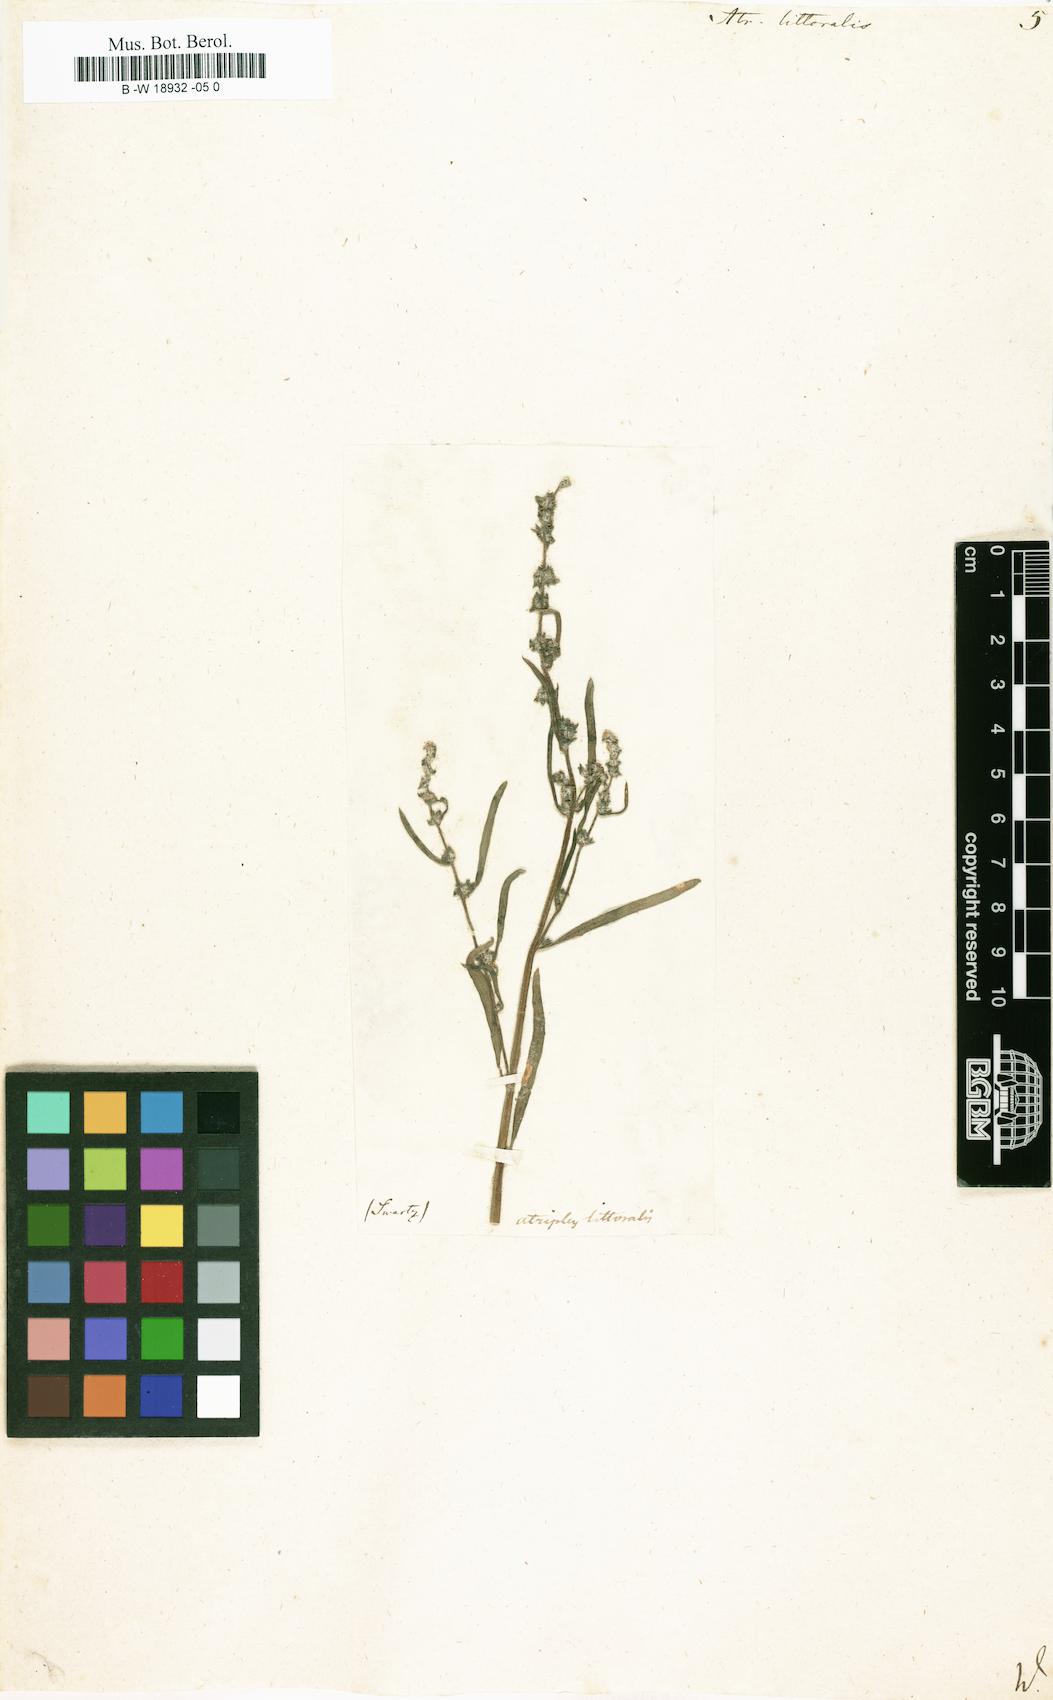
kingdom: Plantae
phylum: Tracheophyta
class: Magnoliopsida
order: Caryophyllales
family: Amaranthaceae
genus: Atriplex
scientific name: Atriplex littoralis
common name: Grass-leaved orache
